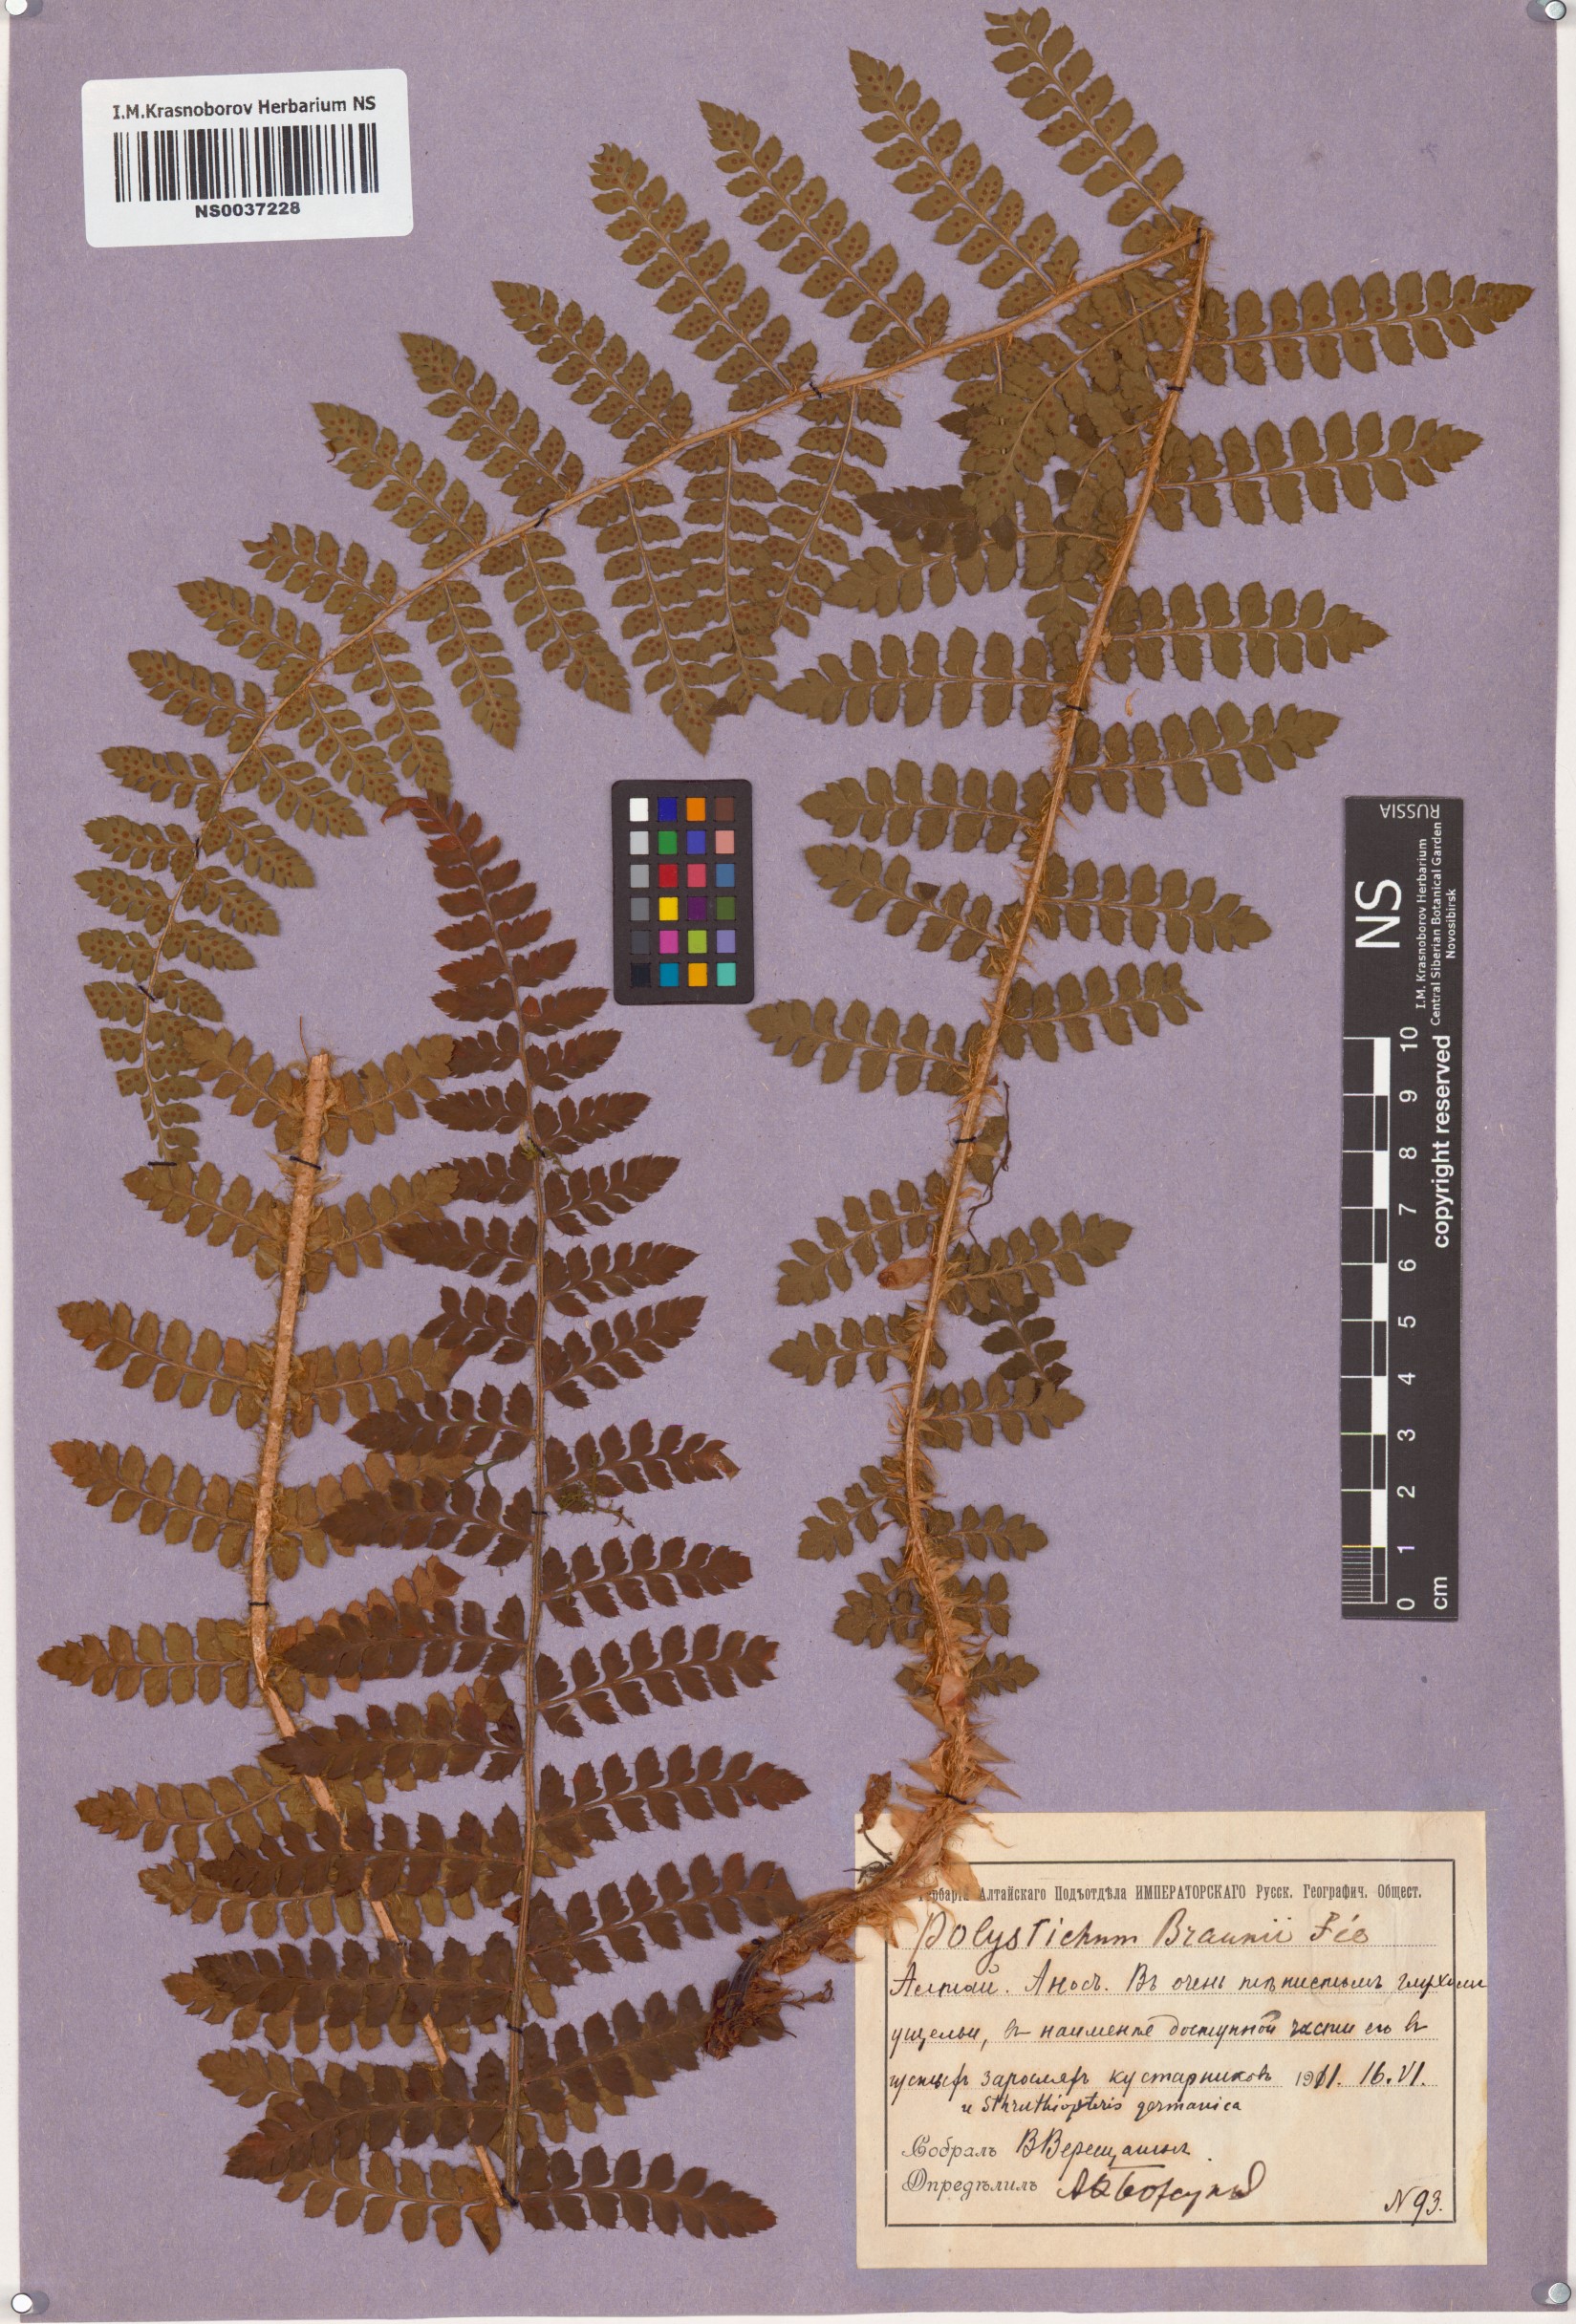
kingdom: Plantae
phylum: Tracheophyta
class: Polypodiopsida
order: Polypodiales
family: Dryopteridaceae
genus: Polystichum
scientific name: Polystichum braunii
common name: Braun's holly fern
